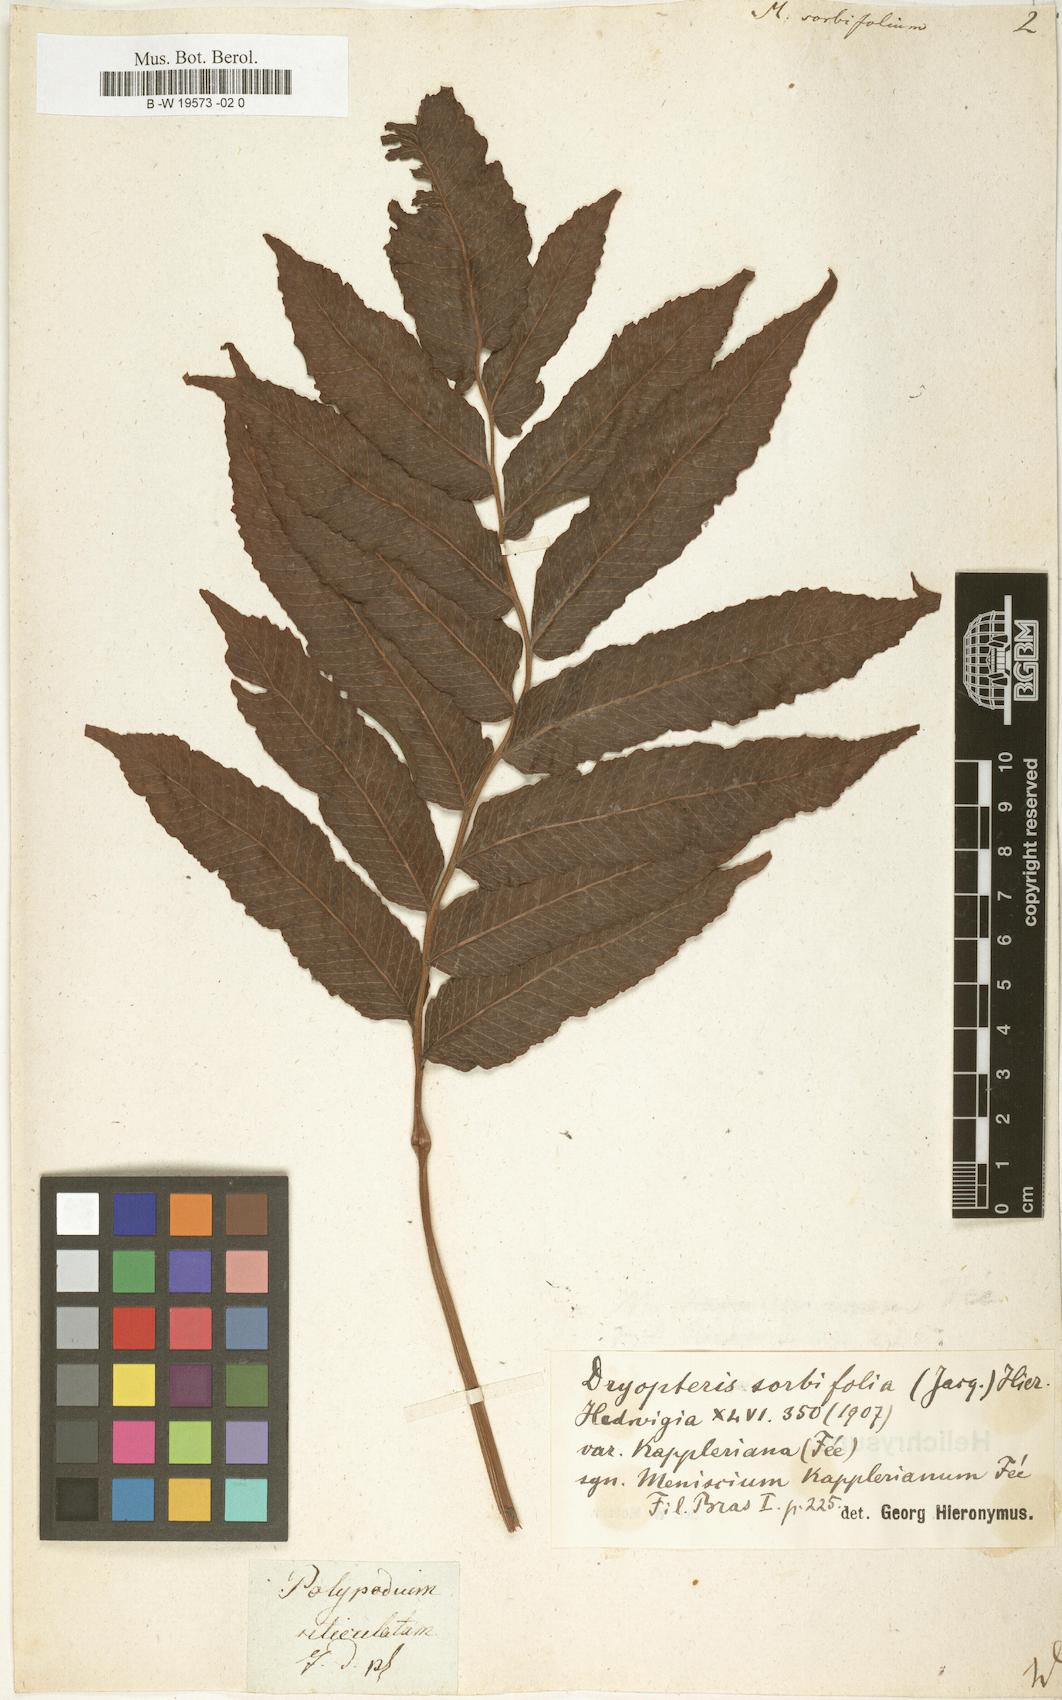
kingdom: Plantae
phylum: Tracheophyta
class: Polypodiopsida
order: Polypodiales
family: Thelypteridaceae
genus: Meniscium
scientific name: Meniscium reticulatum
